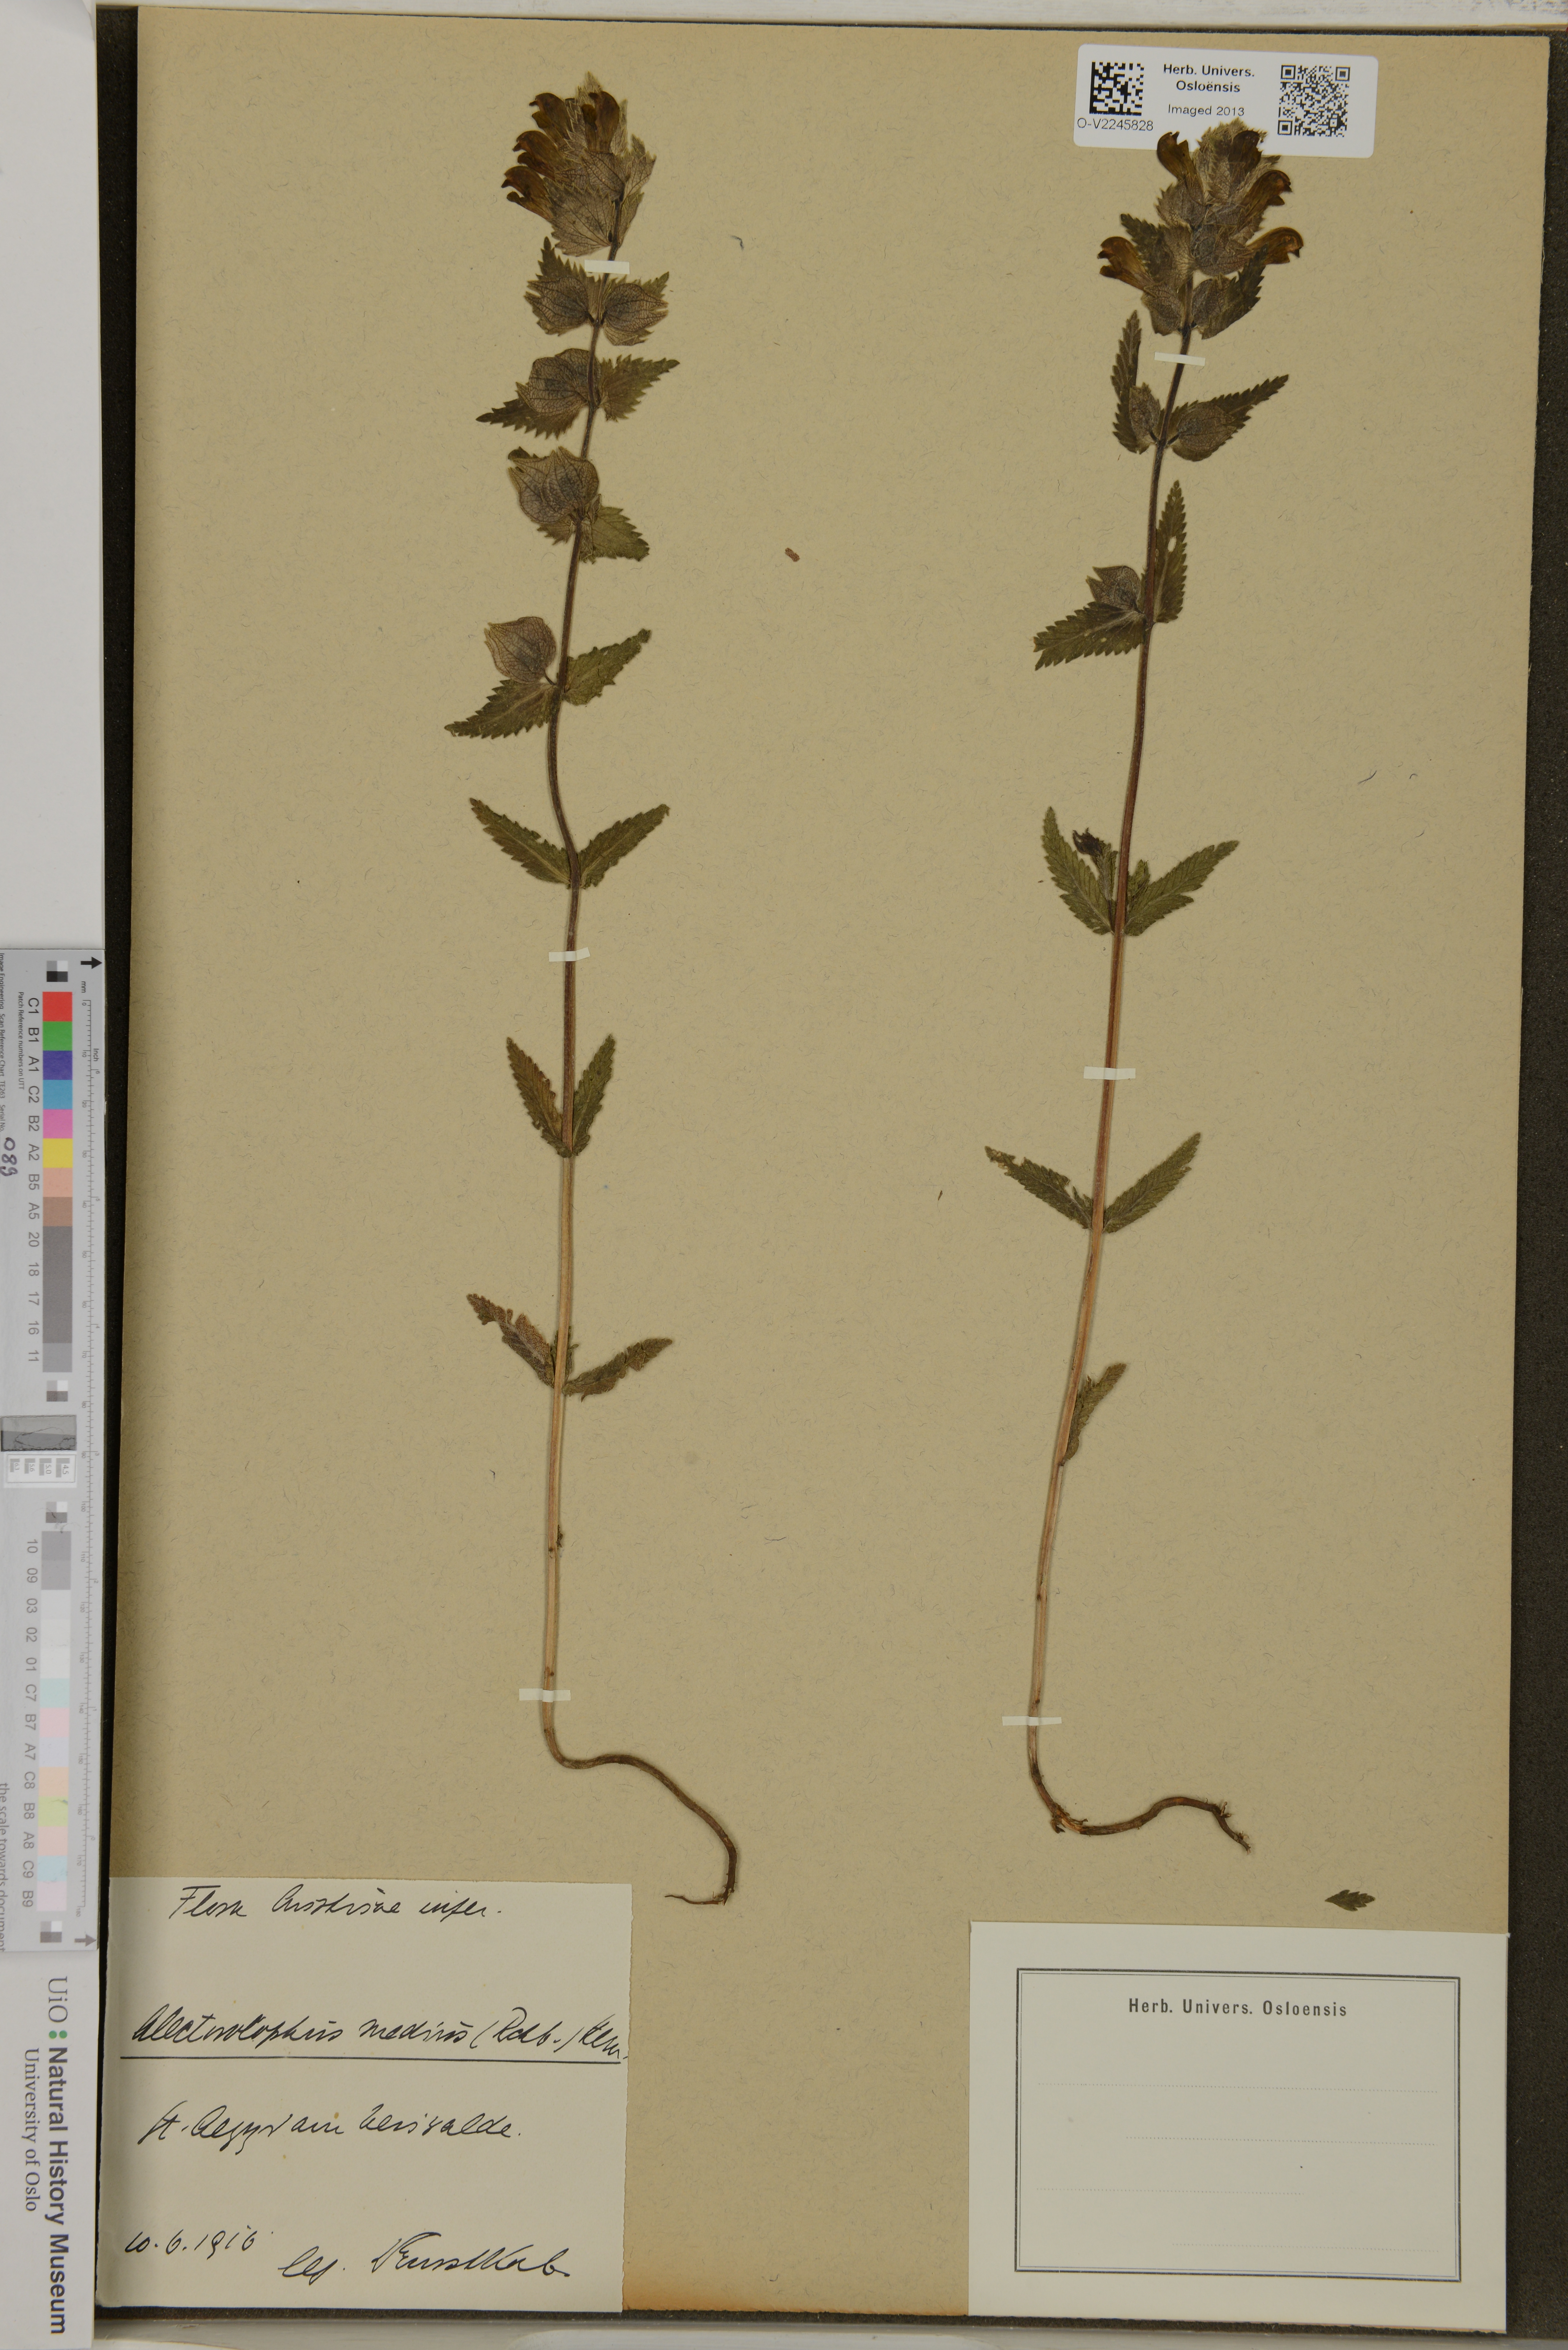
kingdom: Plantae
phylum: Tracheophyta
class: Magnoliopsida
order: Lamiales
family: Orobanchaceae
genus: Rhinanthus
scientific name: Rhinanthus alectorolophus
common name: Greater yellow-rattle
